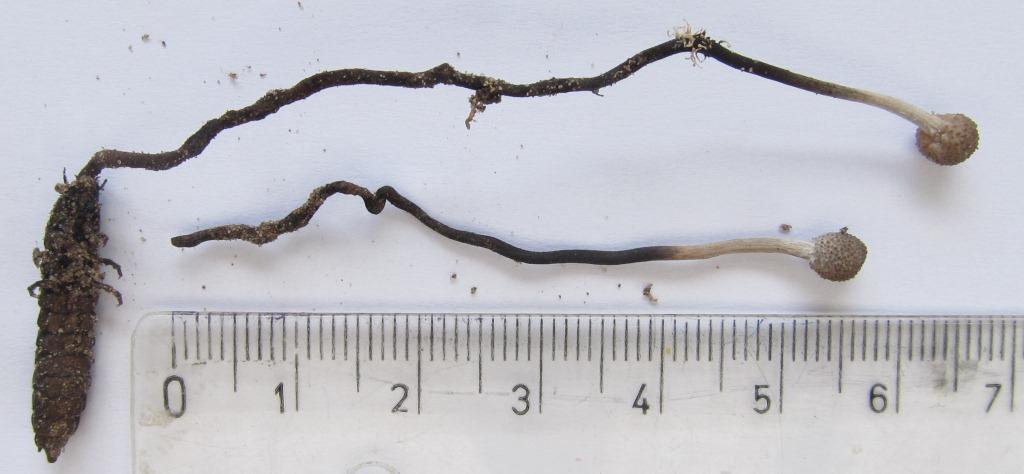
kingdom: Fungi
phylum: Ascomycota
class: Sordariomycetes
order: Hypocreales
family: Ophiocordycipitaceae
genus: Ophiocordyceps
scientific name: Ophiocordyceps entomorrhiza
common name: grå snyltekølle
